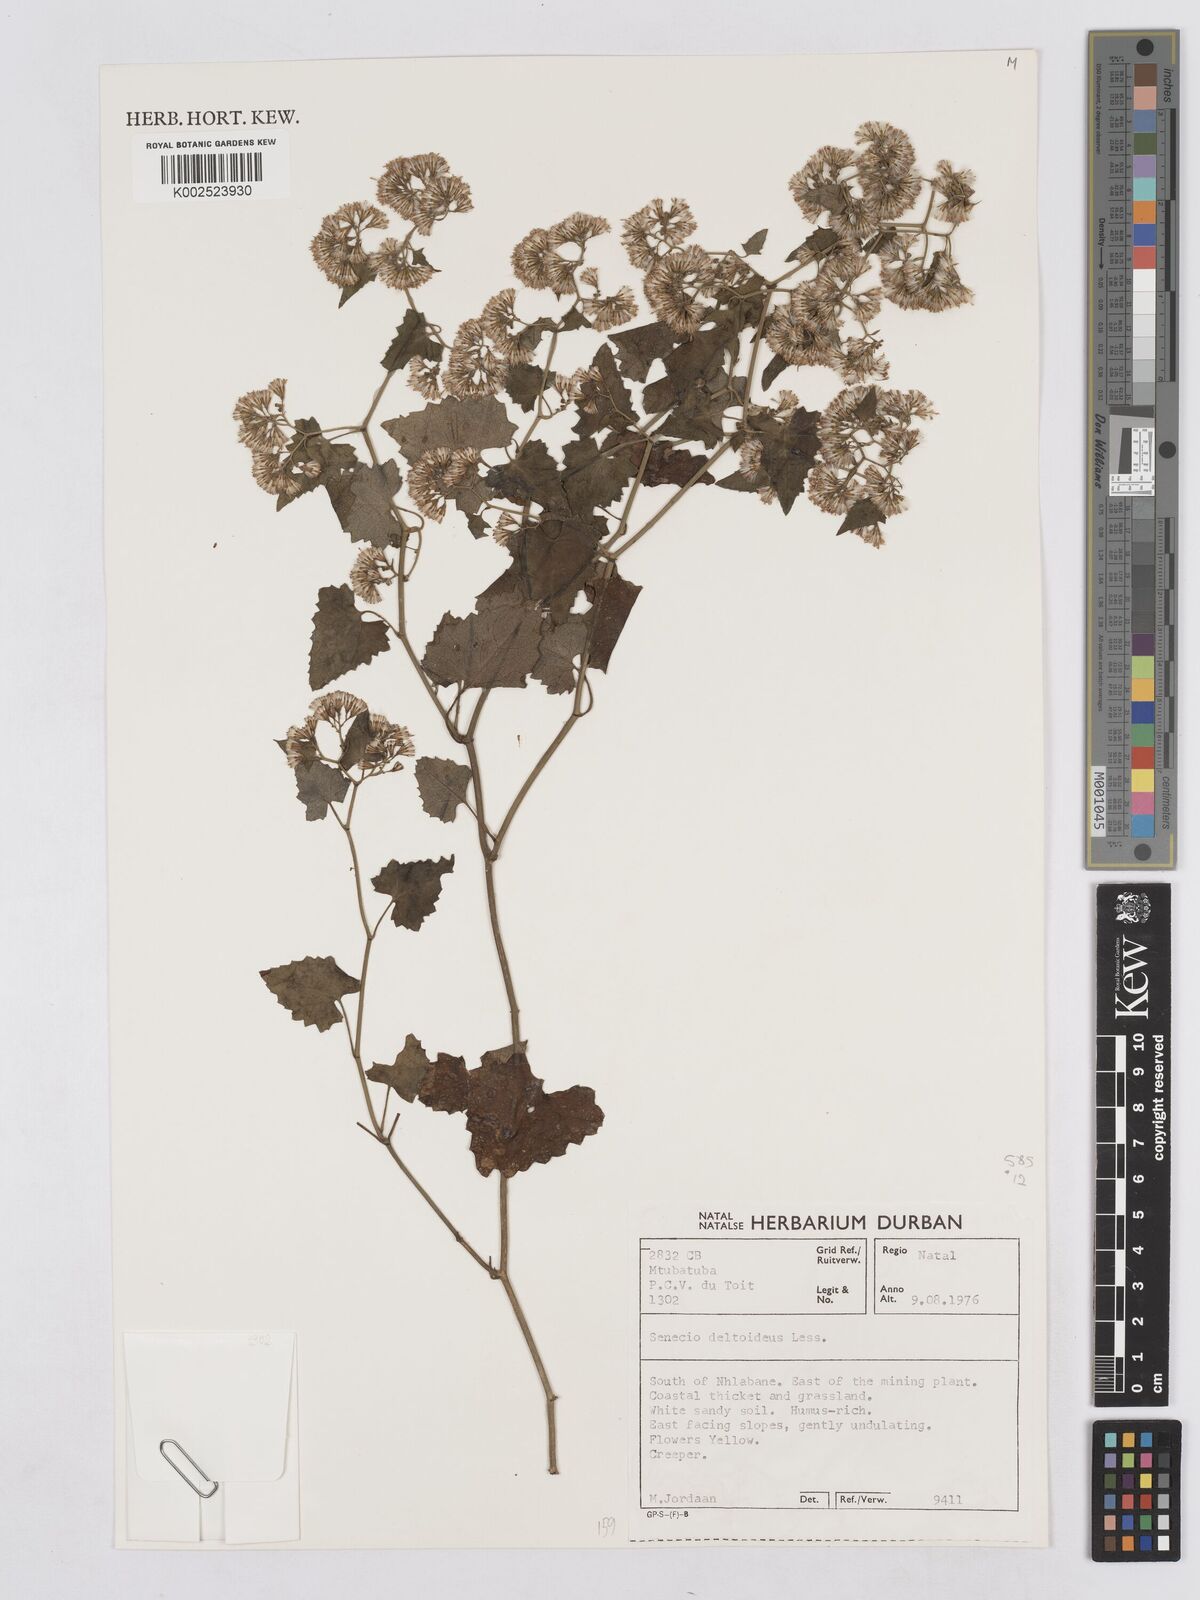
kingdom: Plantae
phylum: Tracheophyta
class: Magnoliopsida
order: Asterales
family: Asteraceae
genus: Senecio
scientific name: Senecio deltoideus
